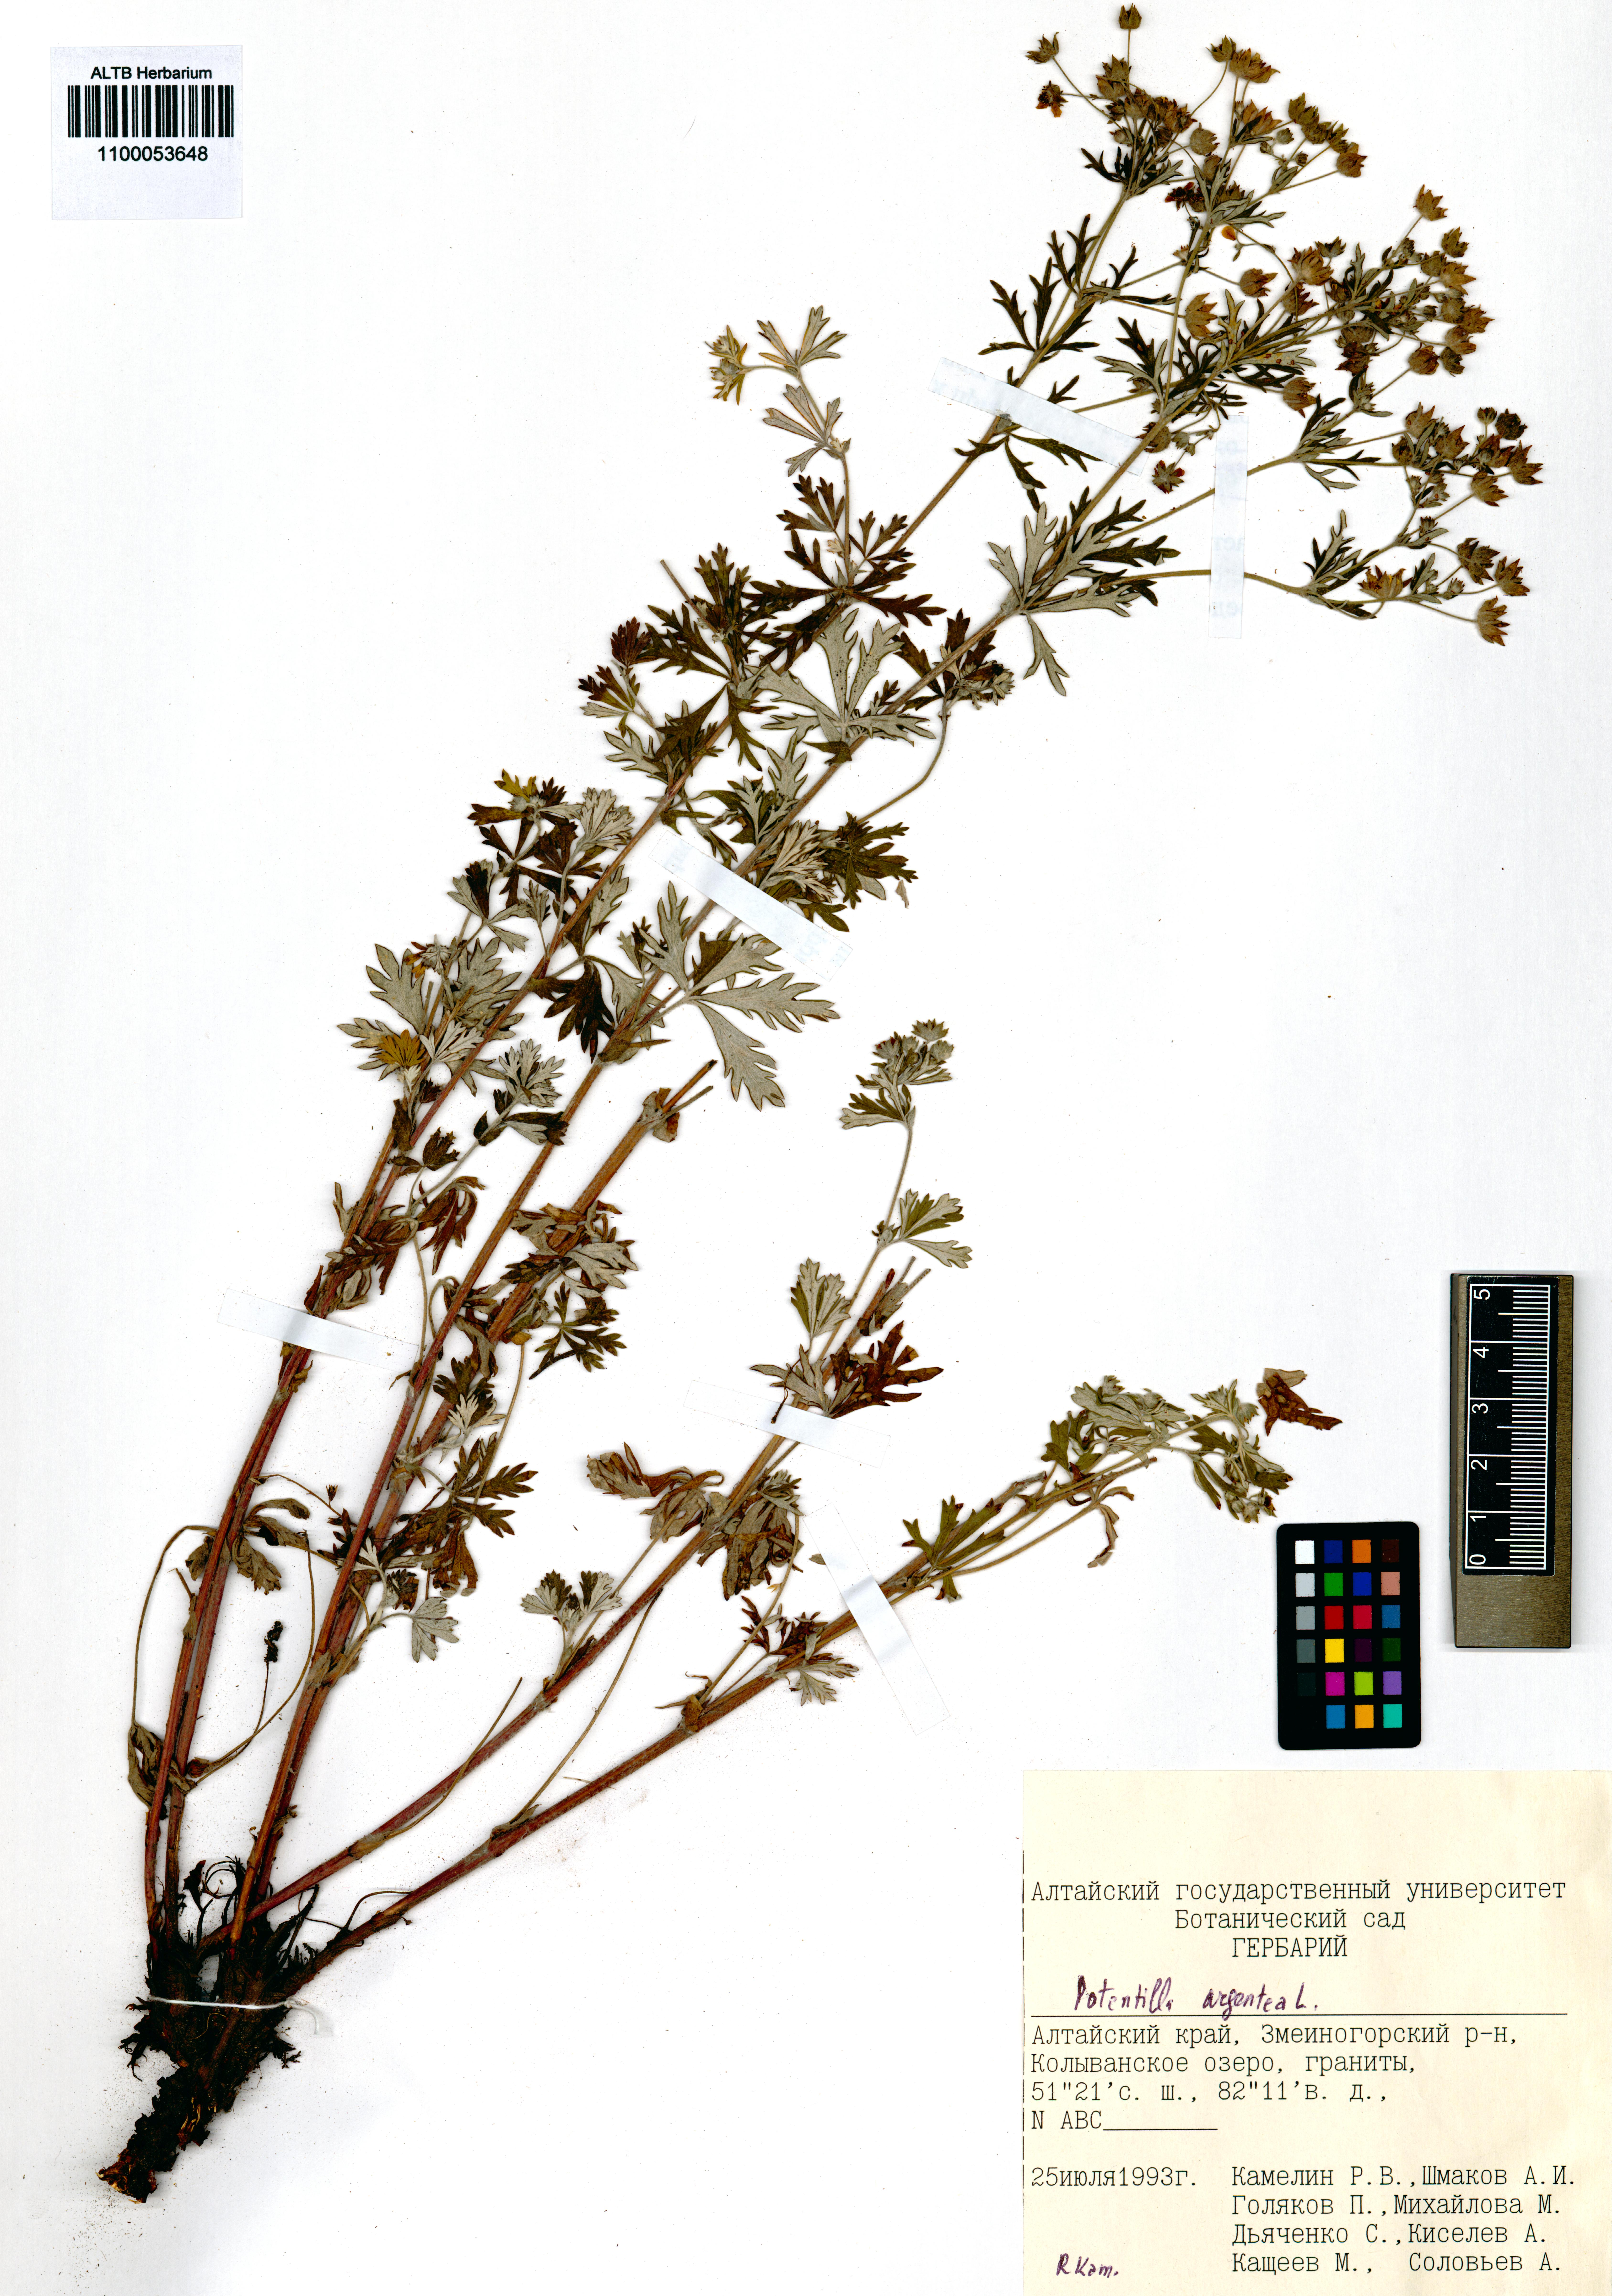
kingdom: Plantae
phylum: Tracheophyta
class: Magnoliopsida
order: Rosales
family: Rosaceae
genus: Potentilla
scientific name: Potentilla argentea
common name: Hoary cinquefoil
